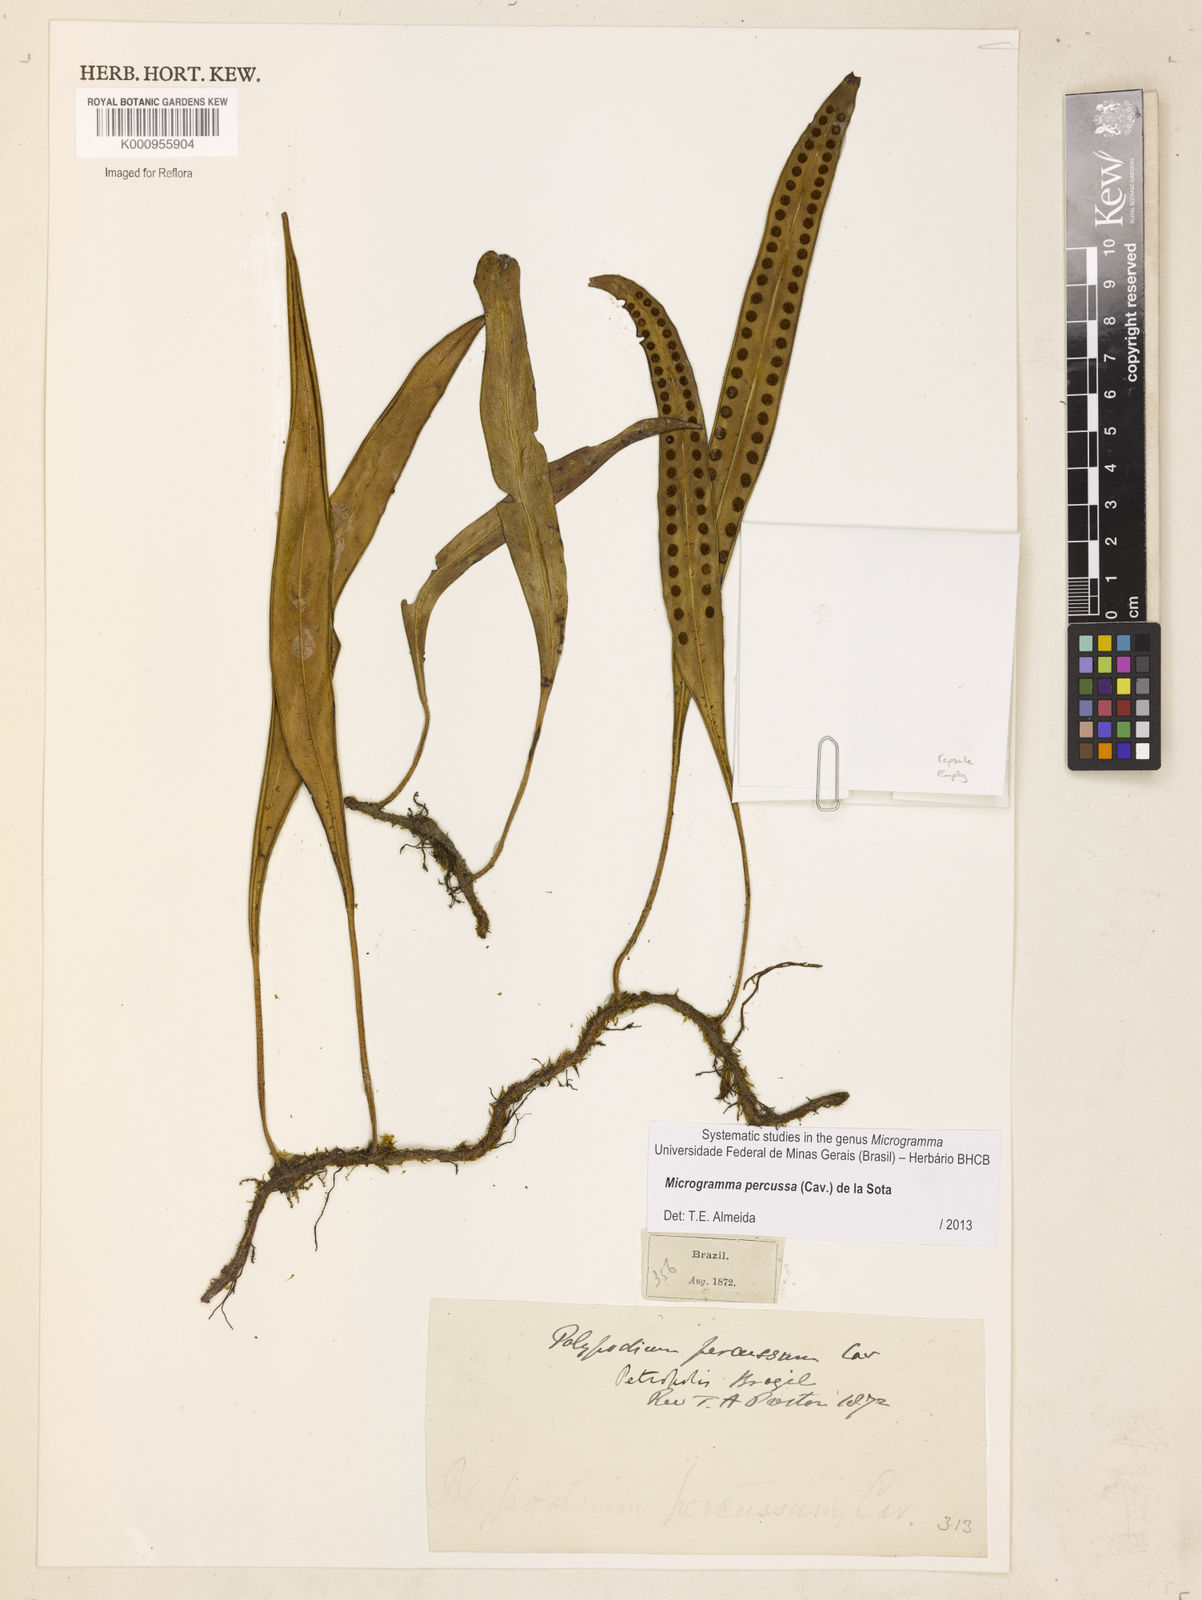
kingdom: Plantae
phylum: Tracheophyta
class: Polypodiopsida
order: Polypodiales
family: Polypodiaceae
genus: Microgramma
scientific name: Microgramma percussa
